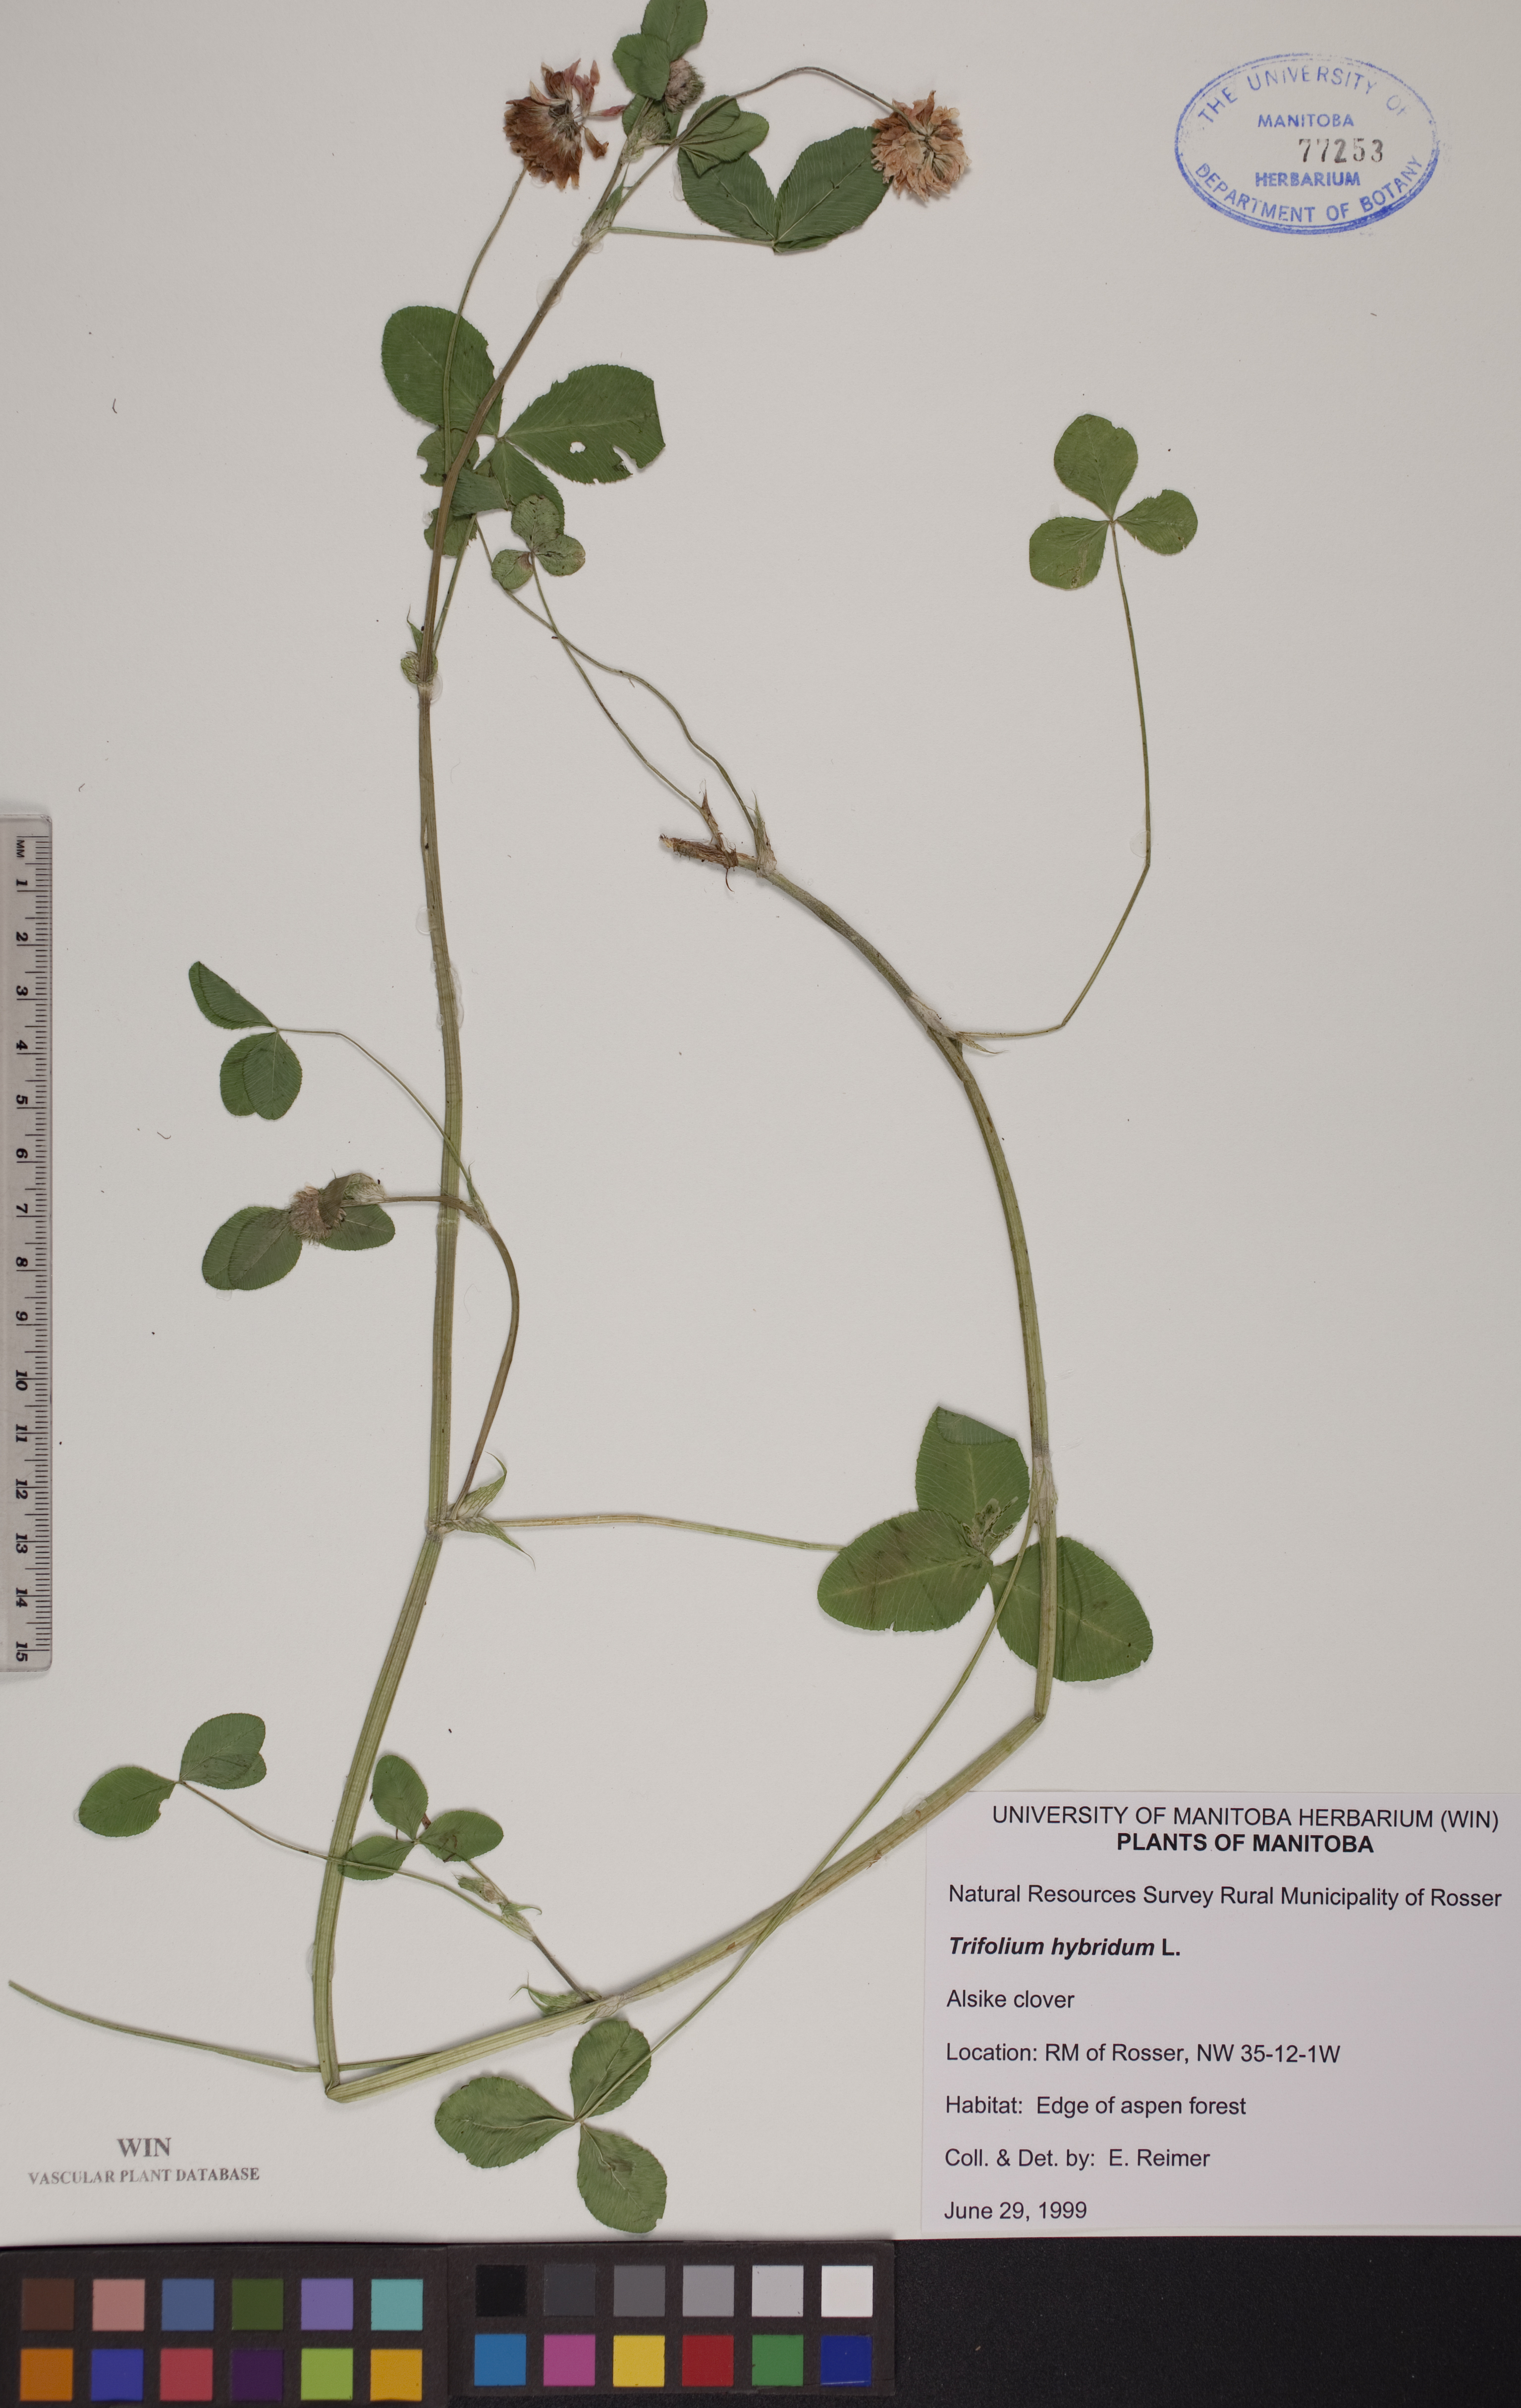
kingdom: Plantae
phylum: Tracheophyta
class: Magnoliopsida
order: Fabales
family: Fabaceae
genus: Trifolium
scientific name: Trifolium hybridum
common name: Alsike clover
